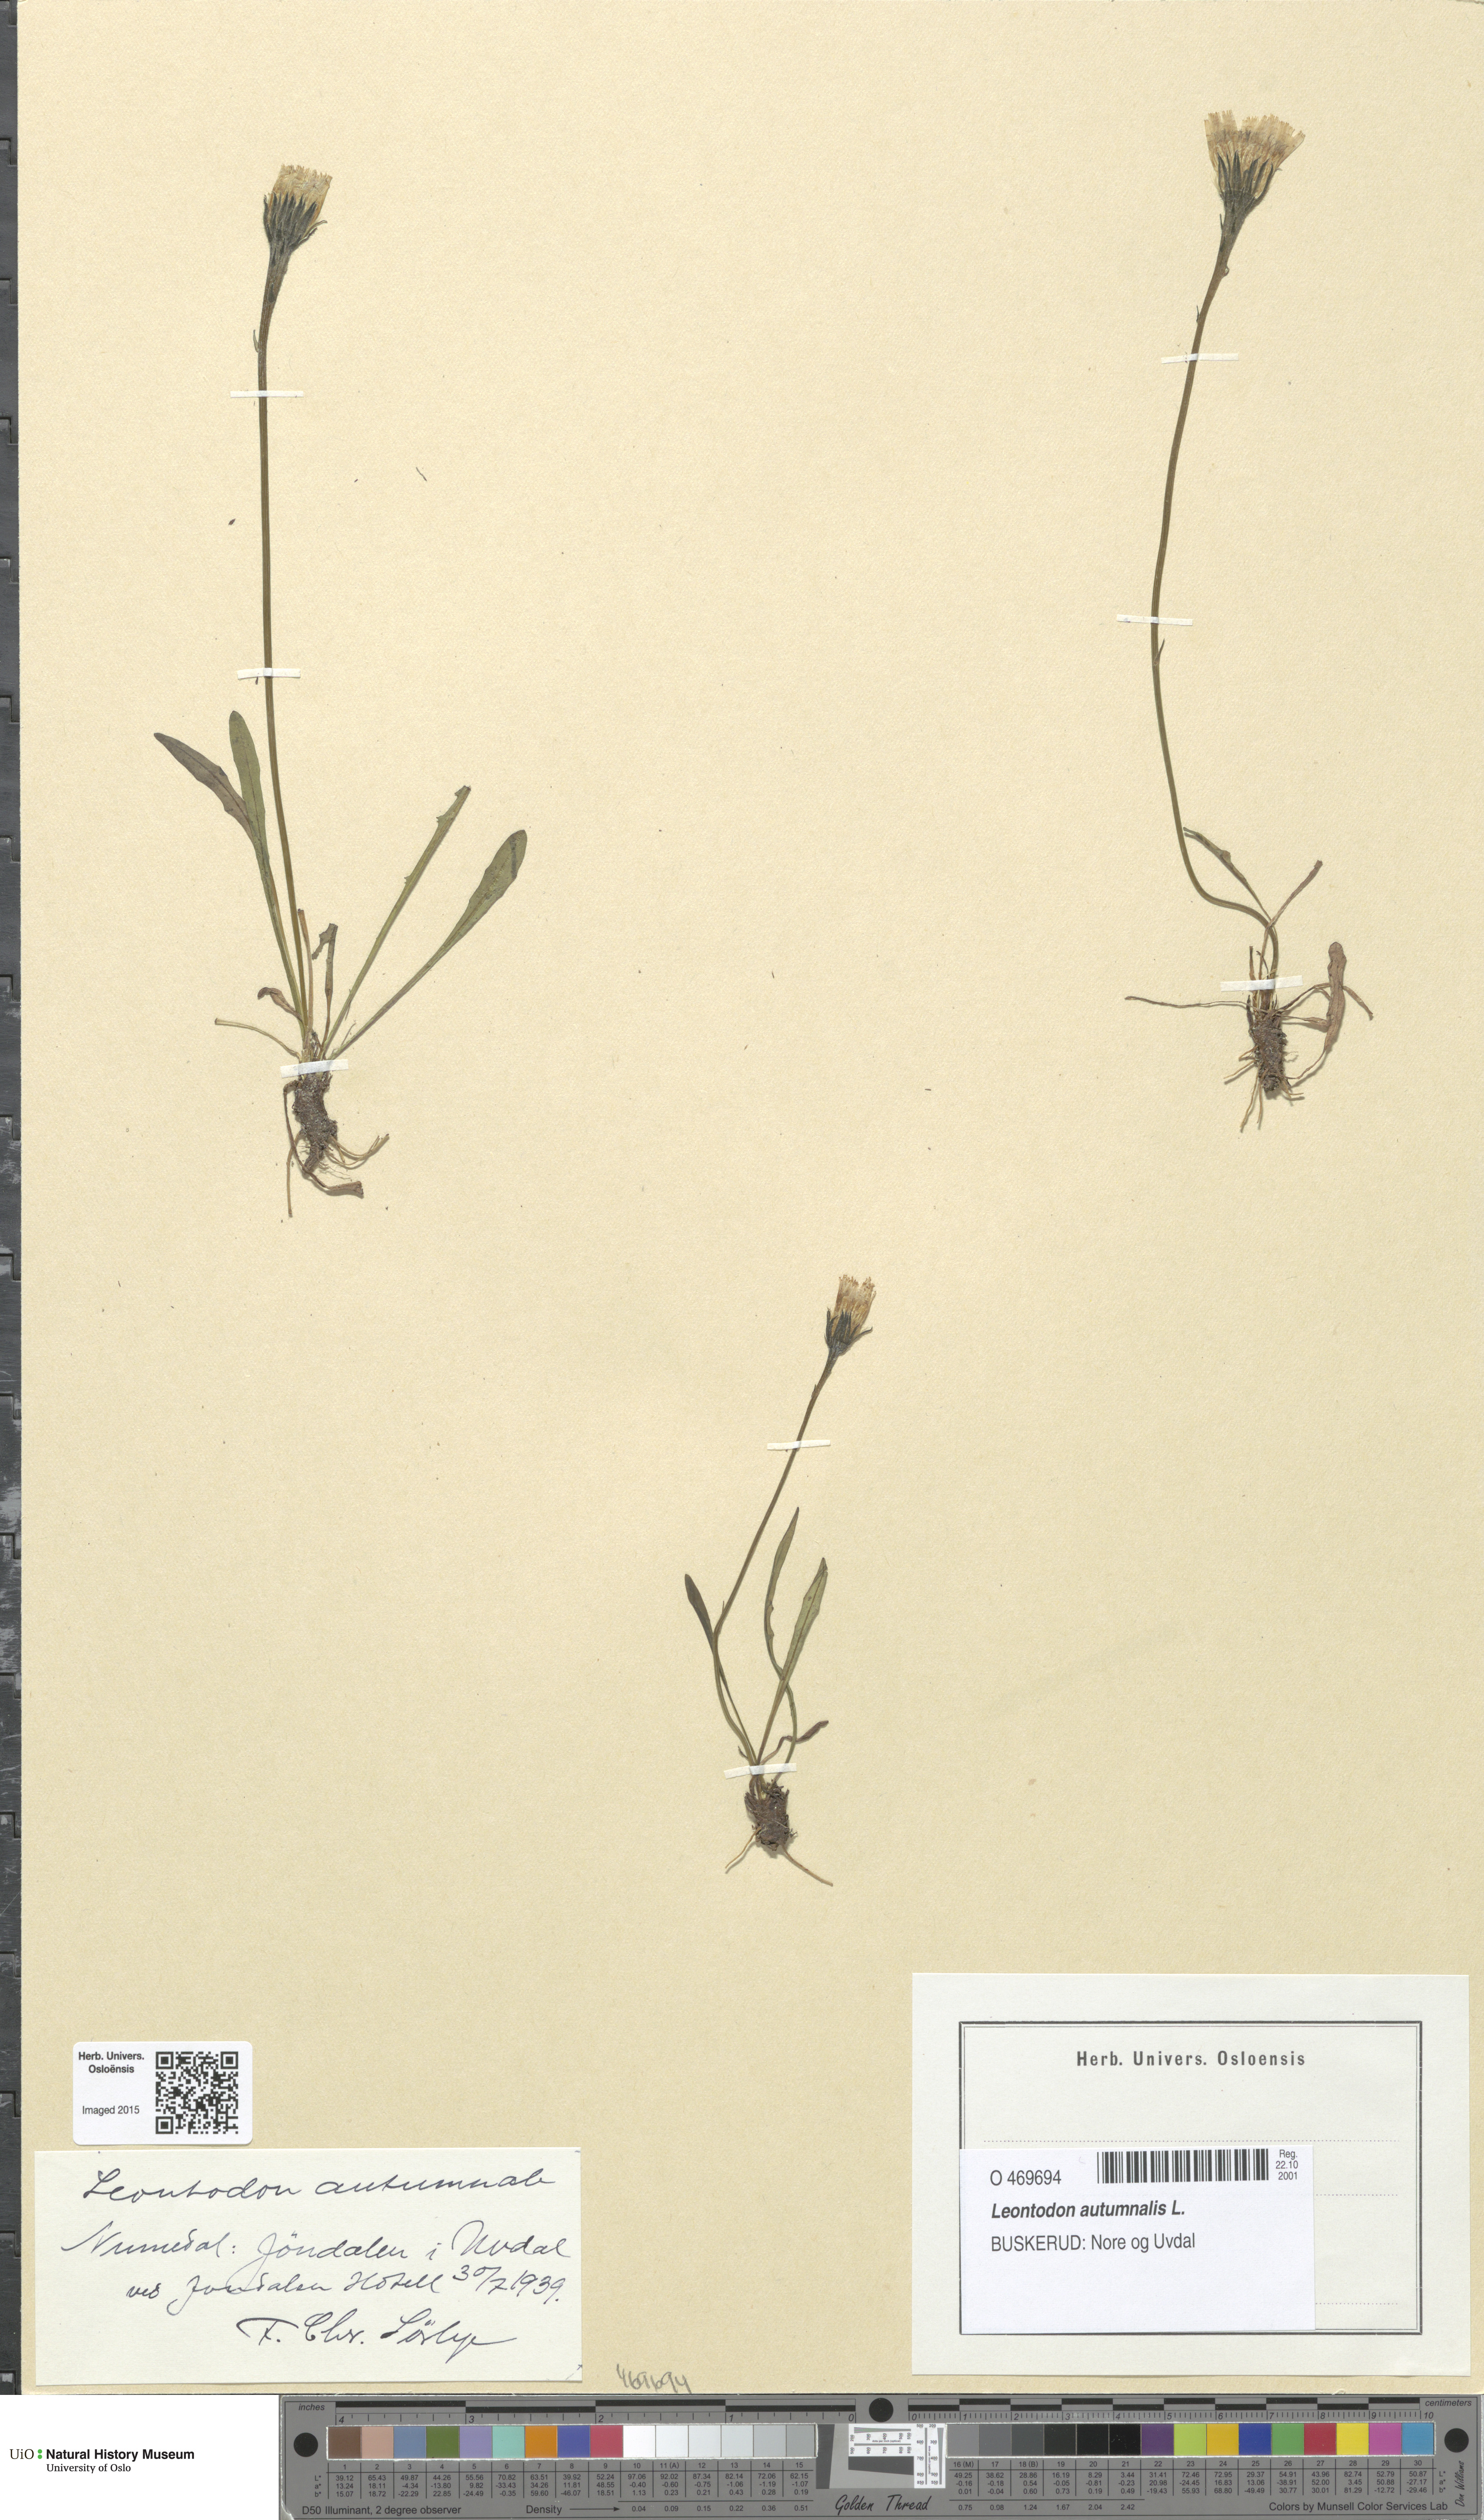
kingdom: Plantae
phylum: Tracheophyta
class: Magnoliopsida
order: Asterales
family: Asteraceae
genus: Scorzoneroides
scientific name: Scorzoneroides autumnalis
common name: Autumn hawkbit
